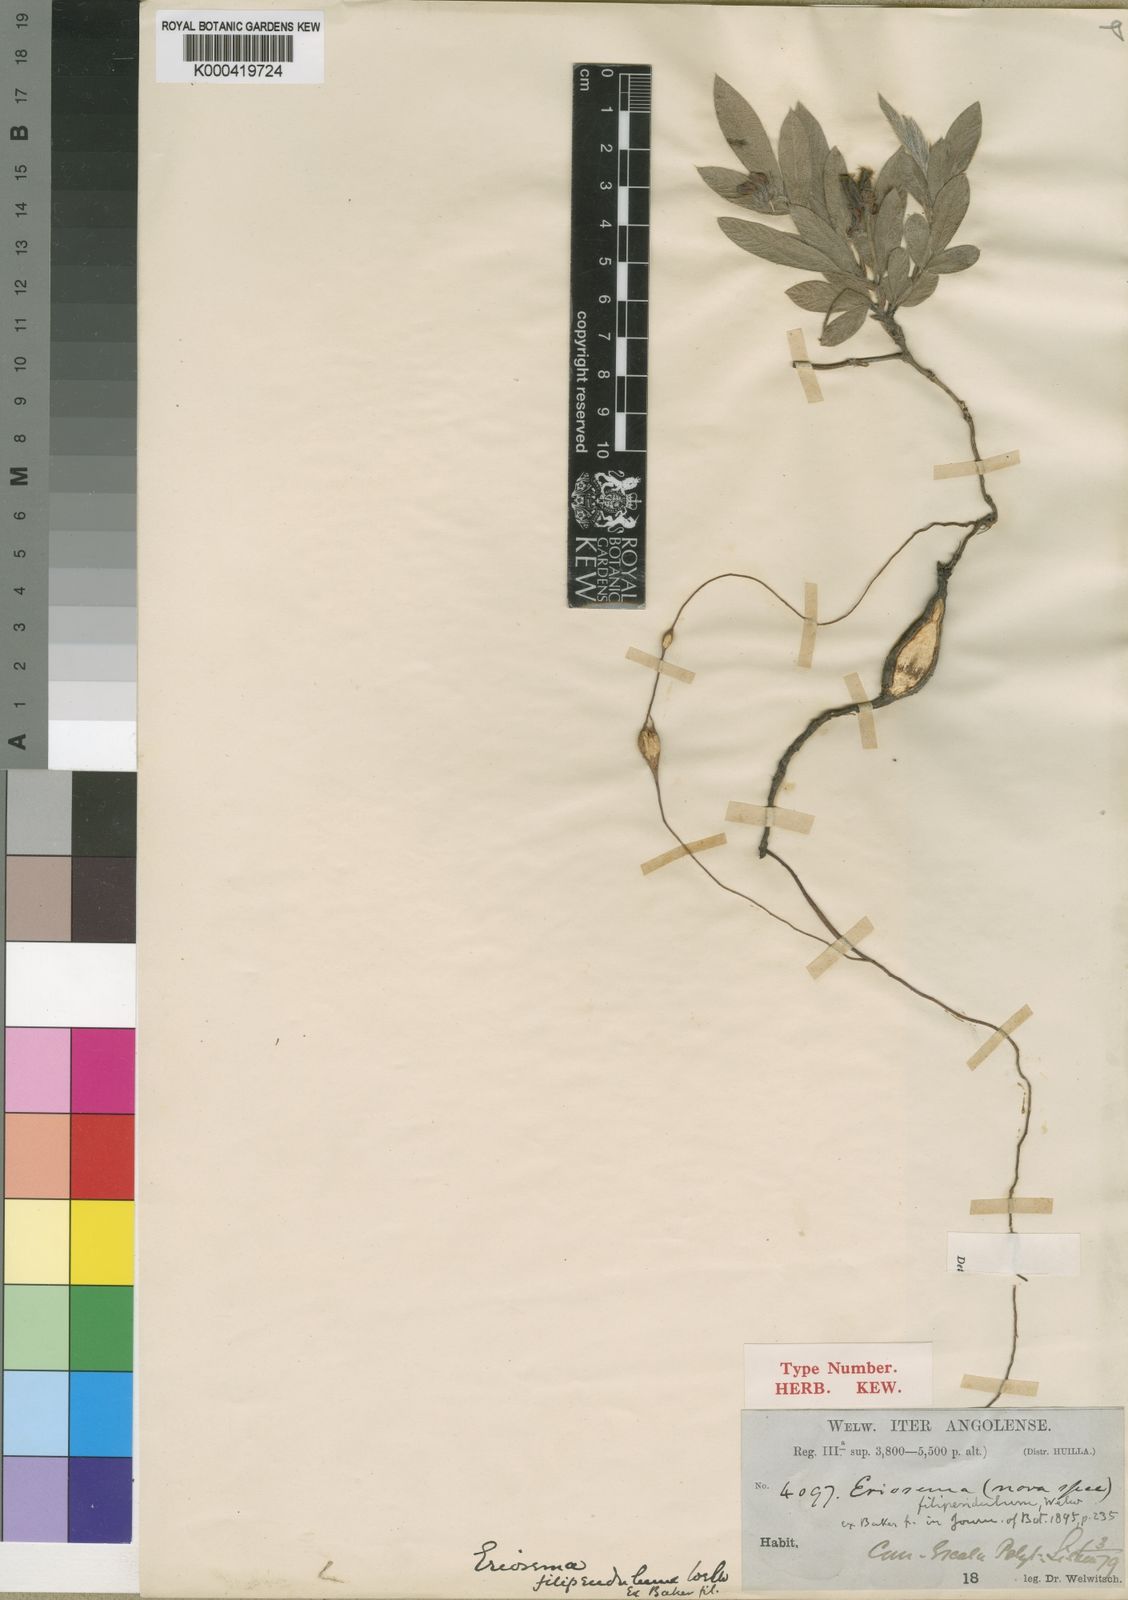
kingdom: Plantae
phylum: Tracheophyta
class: Magnoliopsida
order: Fabales
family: Fabaceae
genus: Eriosema
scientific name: Eriosema shirense
